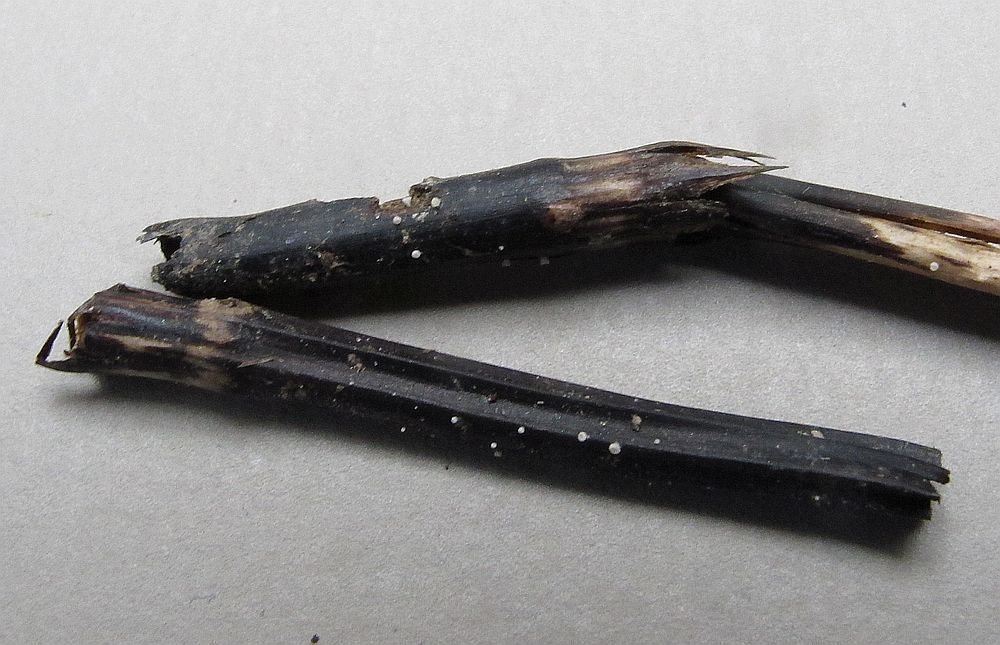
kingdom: Fungi
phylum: Ascomycota
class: Leotiomycetes
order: Helotiales
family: Pezizellaceae
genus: Psilachnum
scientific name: Psilachnum inquilinum
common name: padderok-hårskive
